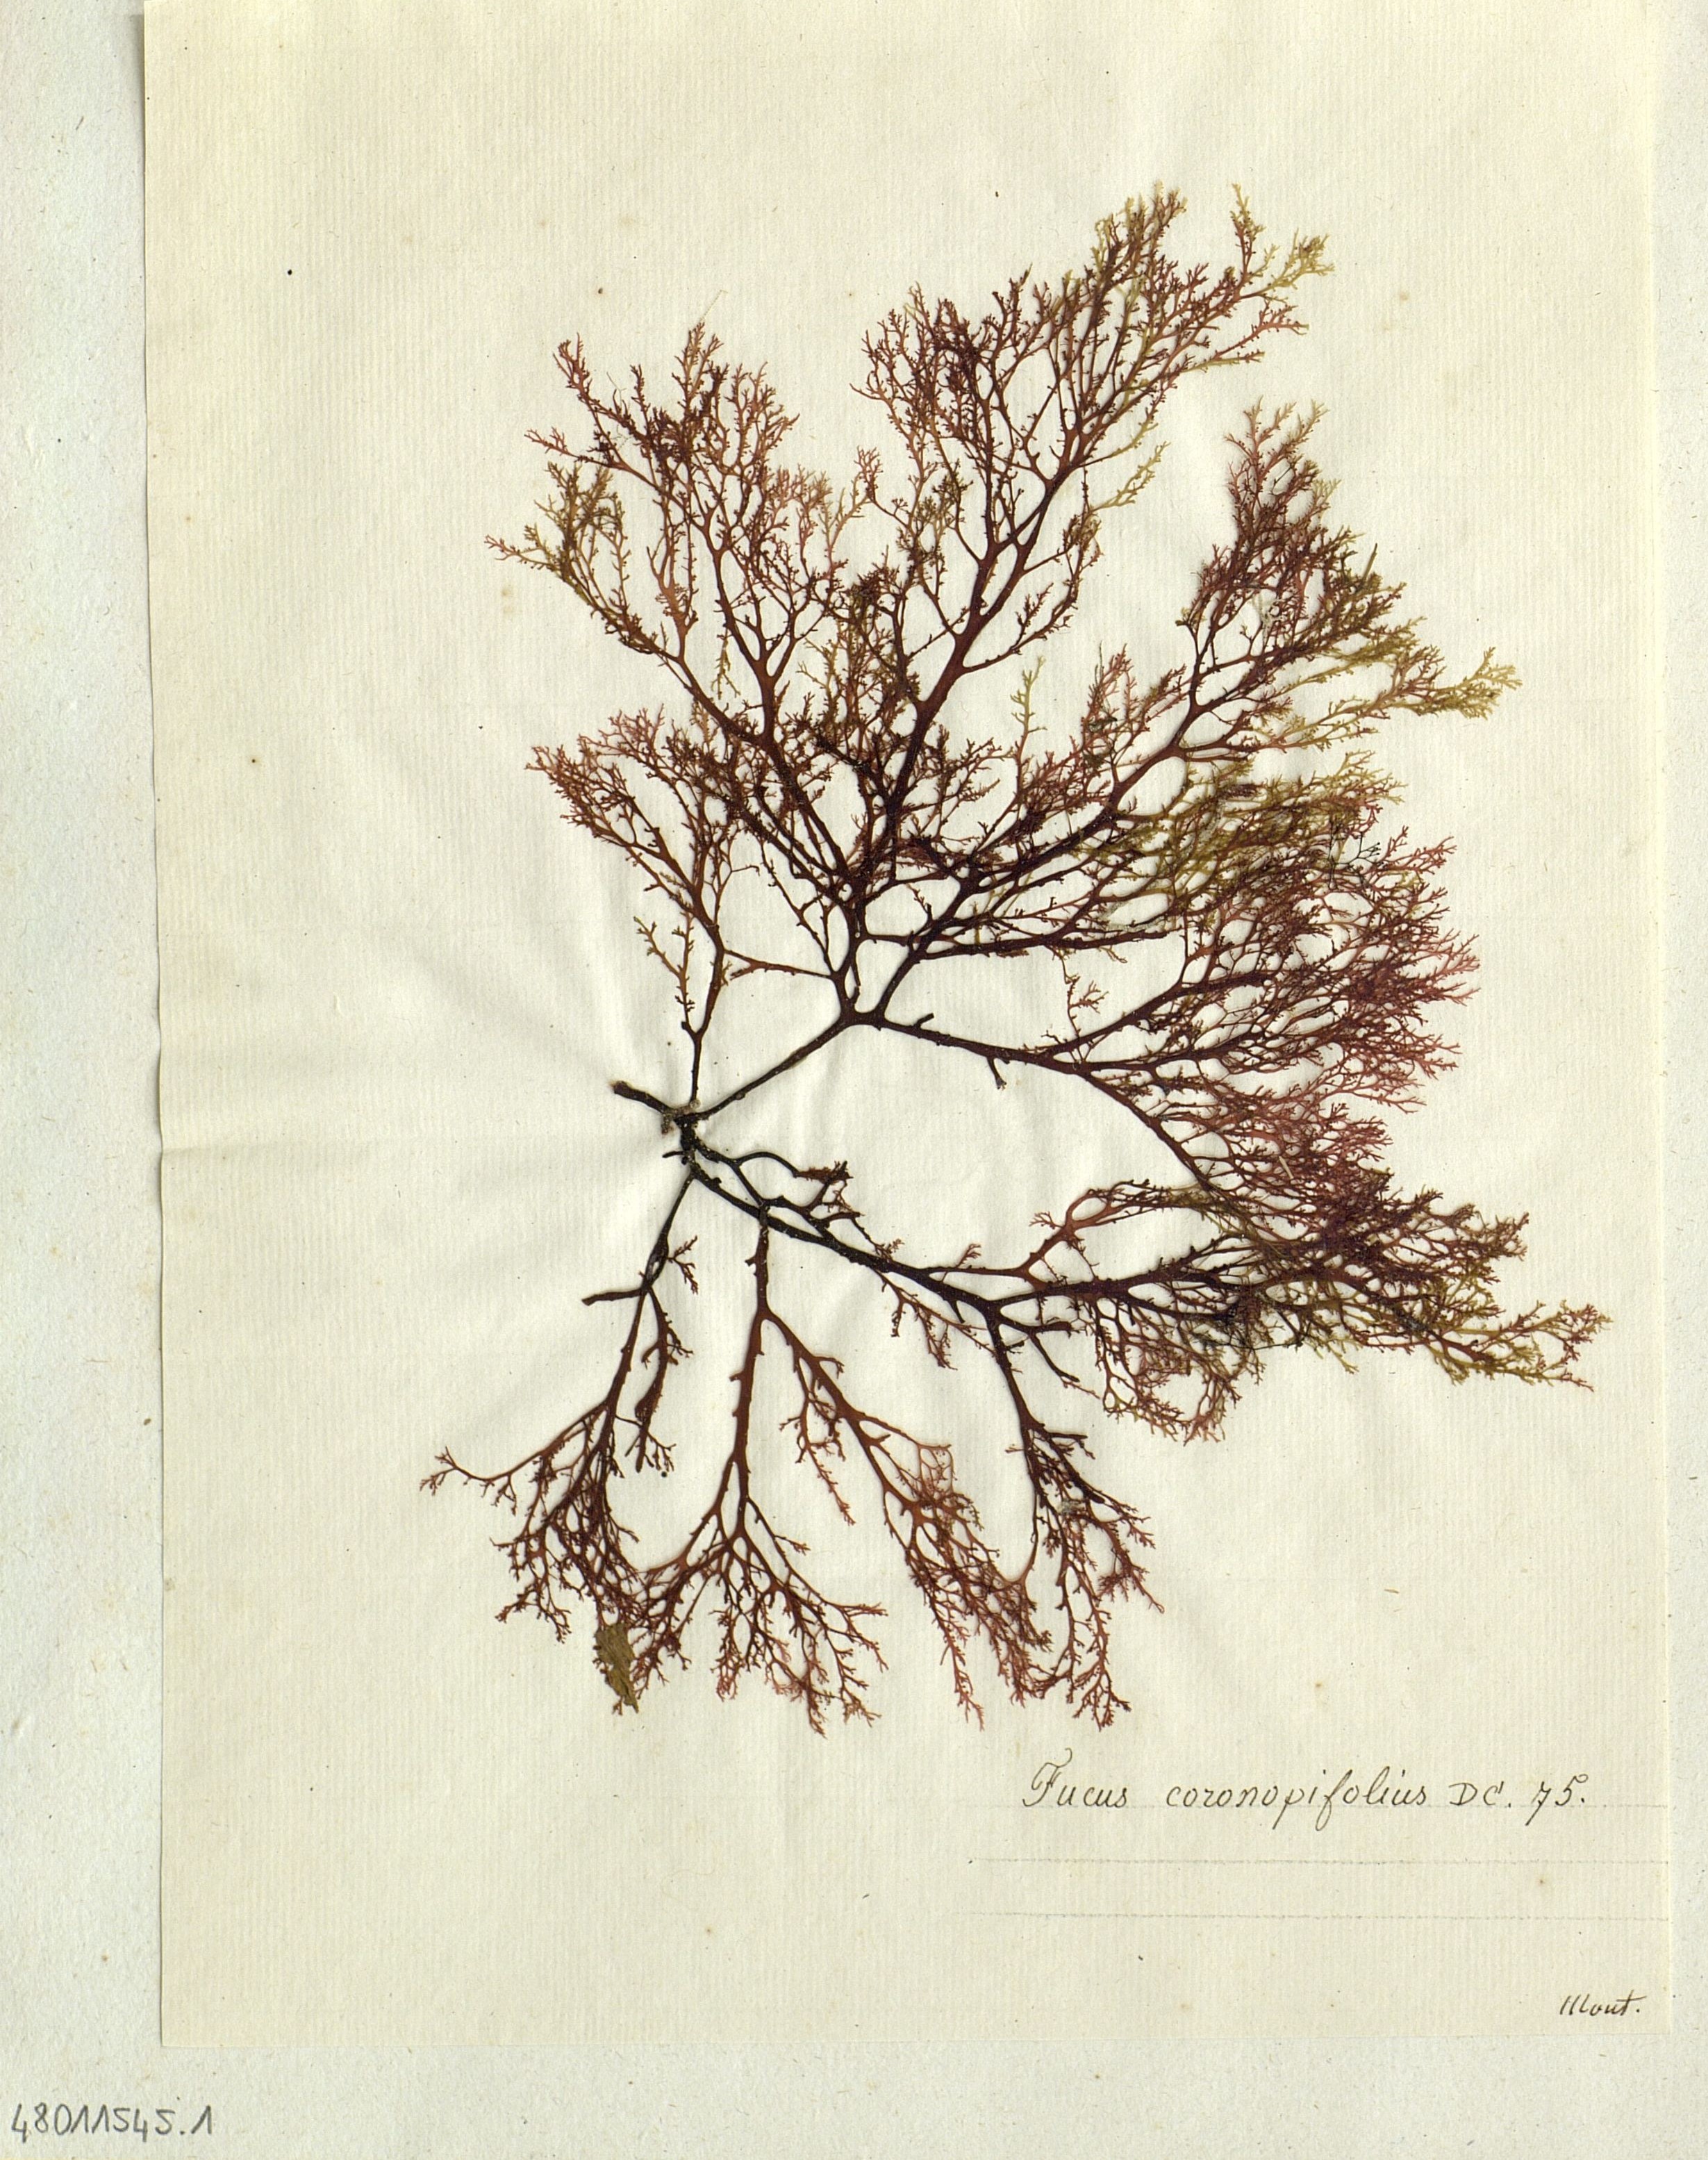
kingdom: Chromista
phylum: Ochrophyta
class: Phaeophyceae
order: Fucales
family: Fucaceae
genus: Fucus
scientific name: Fucus
